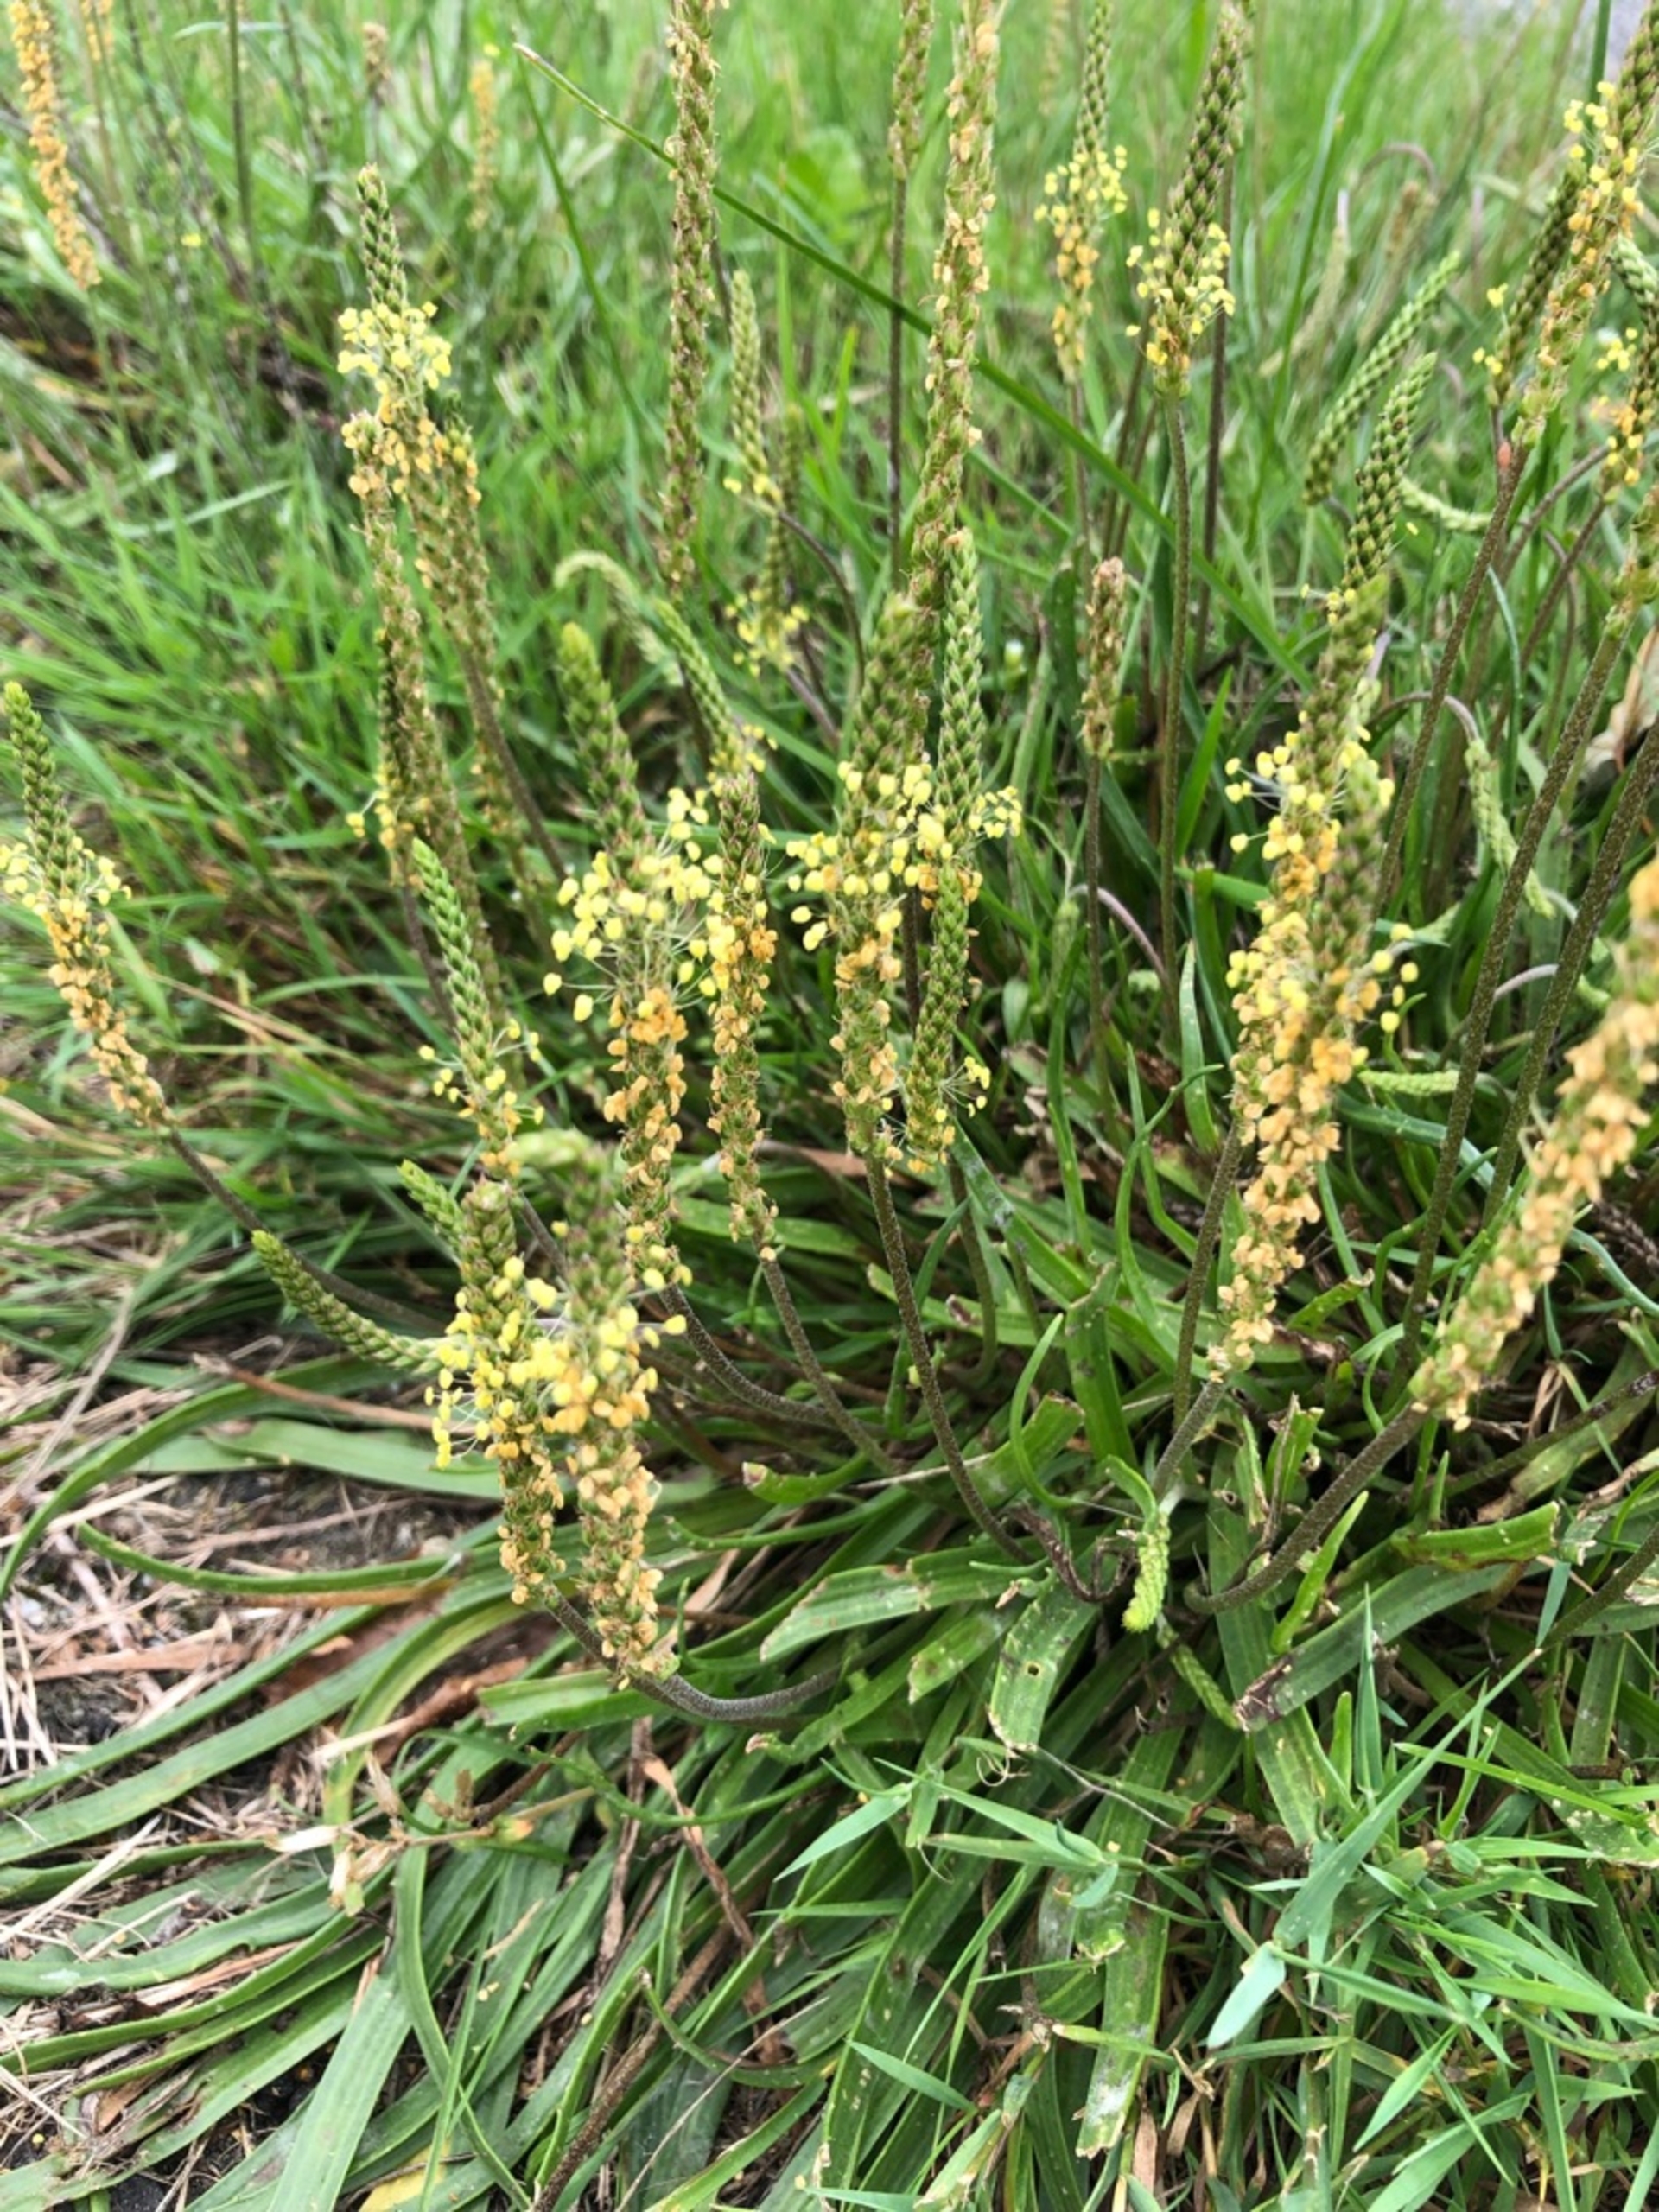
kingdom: Plantae
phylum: Tracheophyta
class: Magnoliopsida
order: Lamiales
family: Plantaginaceae
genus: Plantago
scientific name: Plantago maritima
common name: Strand-vejbred
